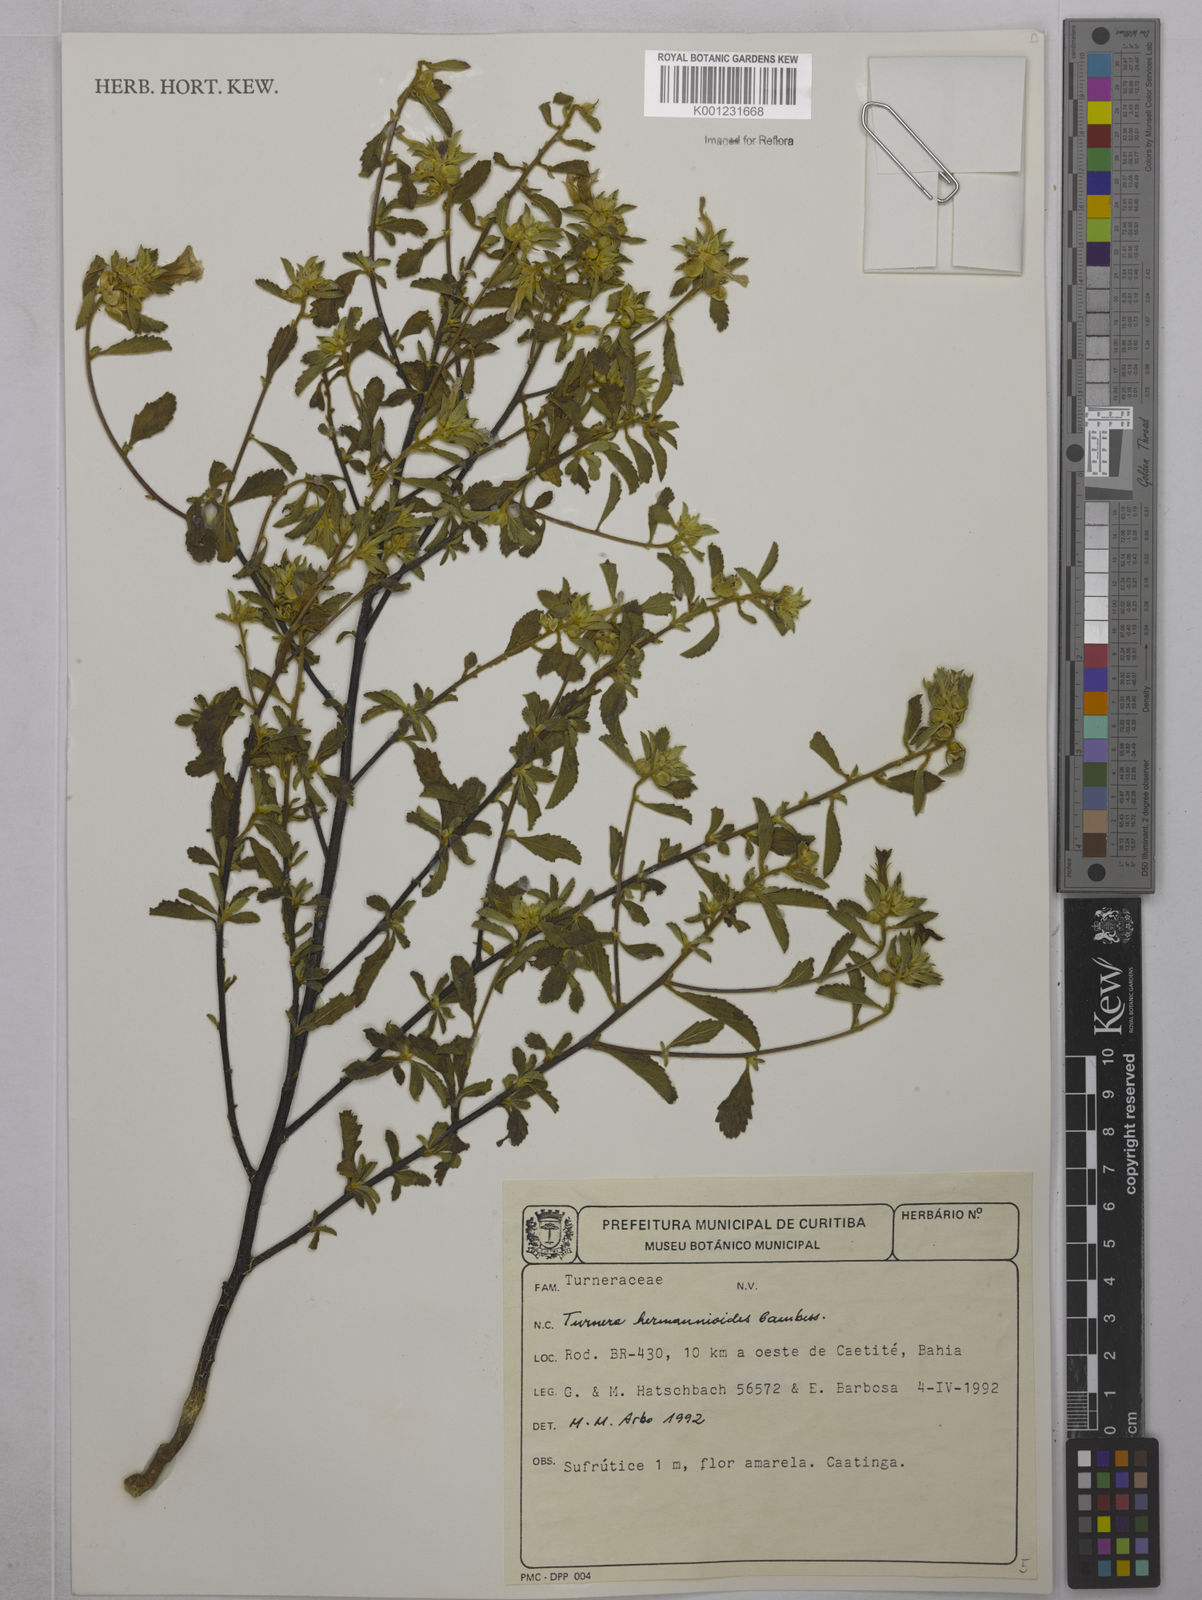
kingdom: Plantae
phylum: Tracheophyta
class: Magnoliopsida
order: Malpighiales
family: Turneraceae
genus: Turnera
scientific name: Turnera hermannioides
